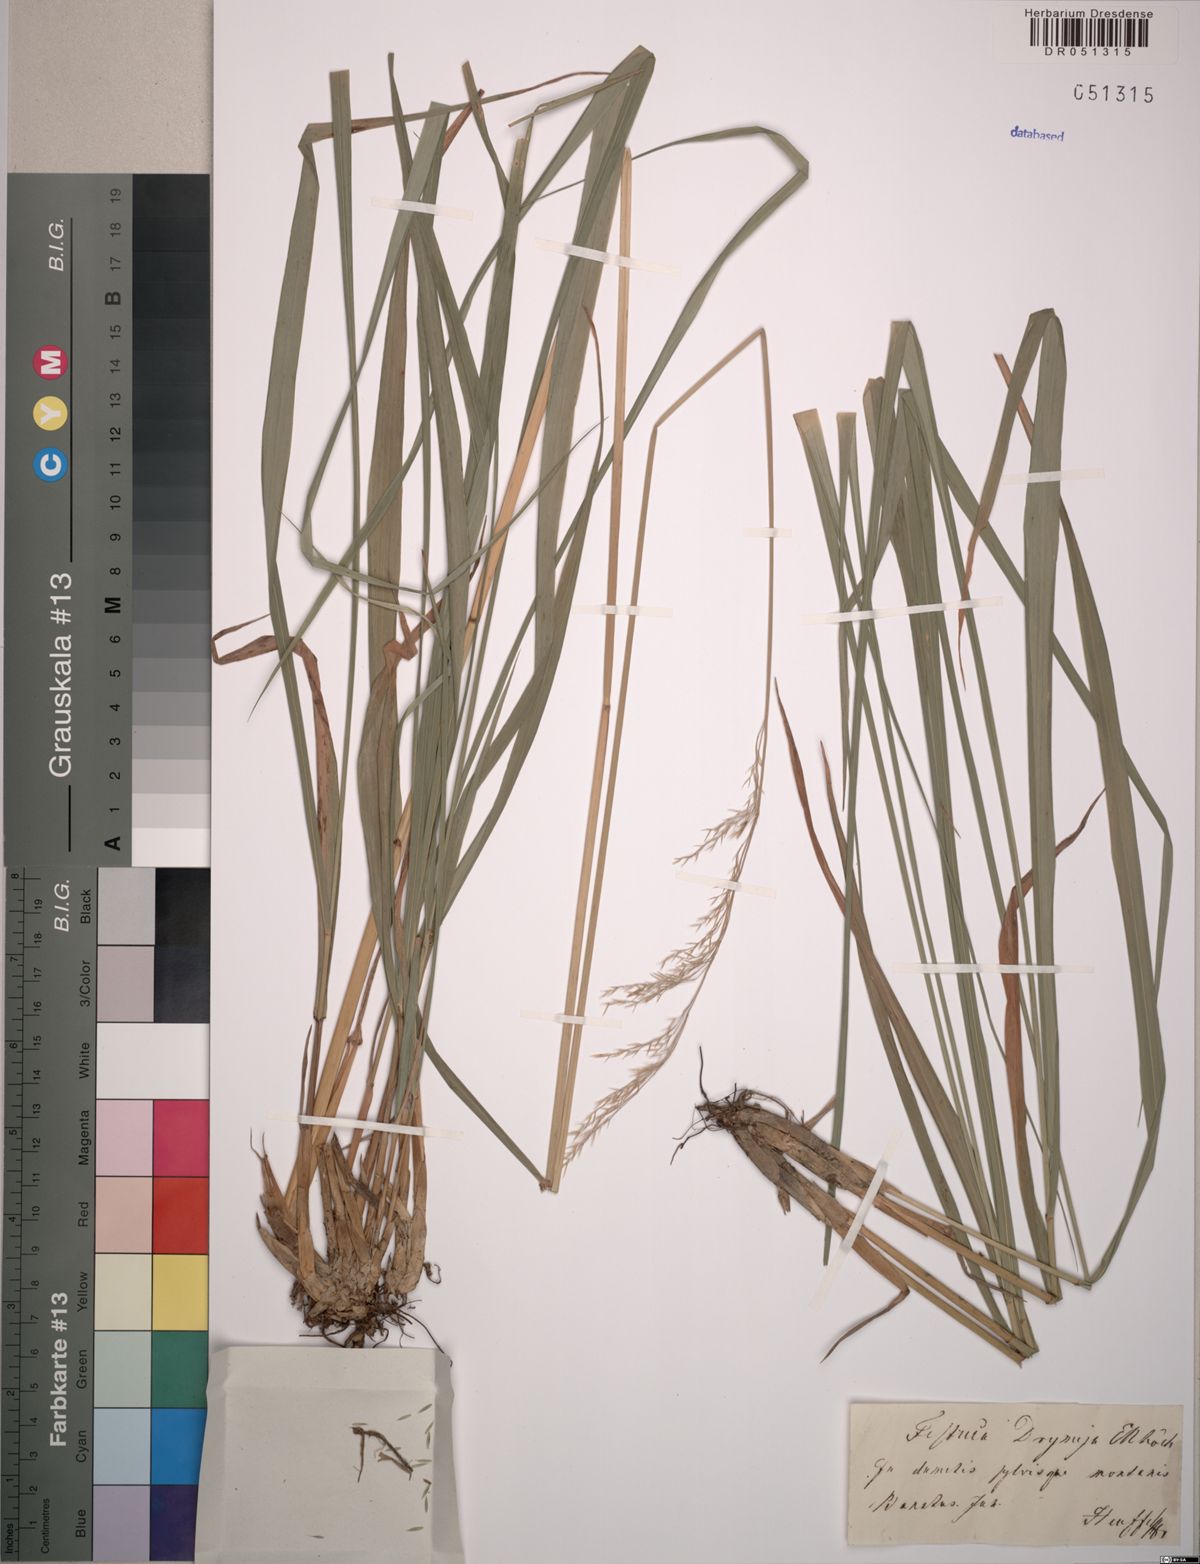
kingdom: Plantae
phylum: Tracheophyta
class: Liliopsida
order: Poales
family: Poaceae
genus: Festuca
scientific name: Festuca drymeja
